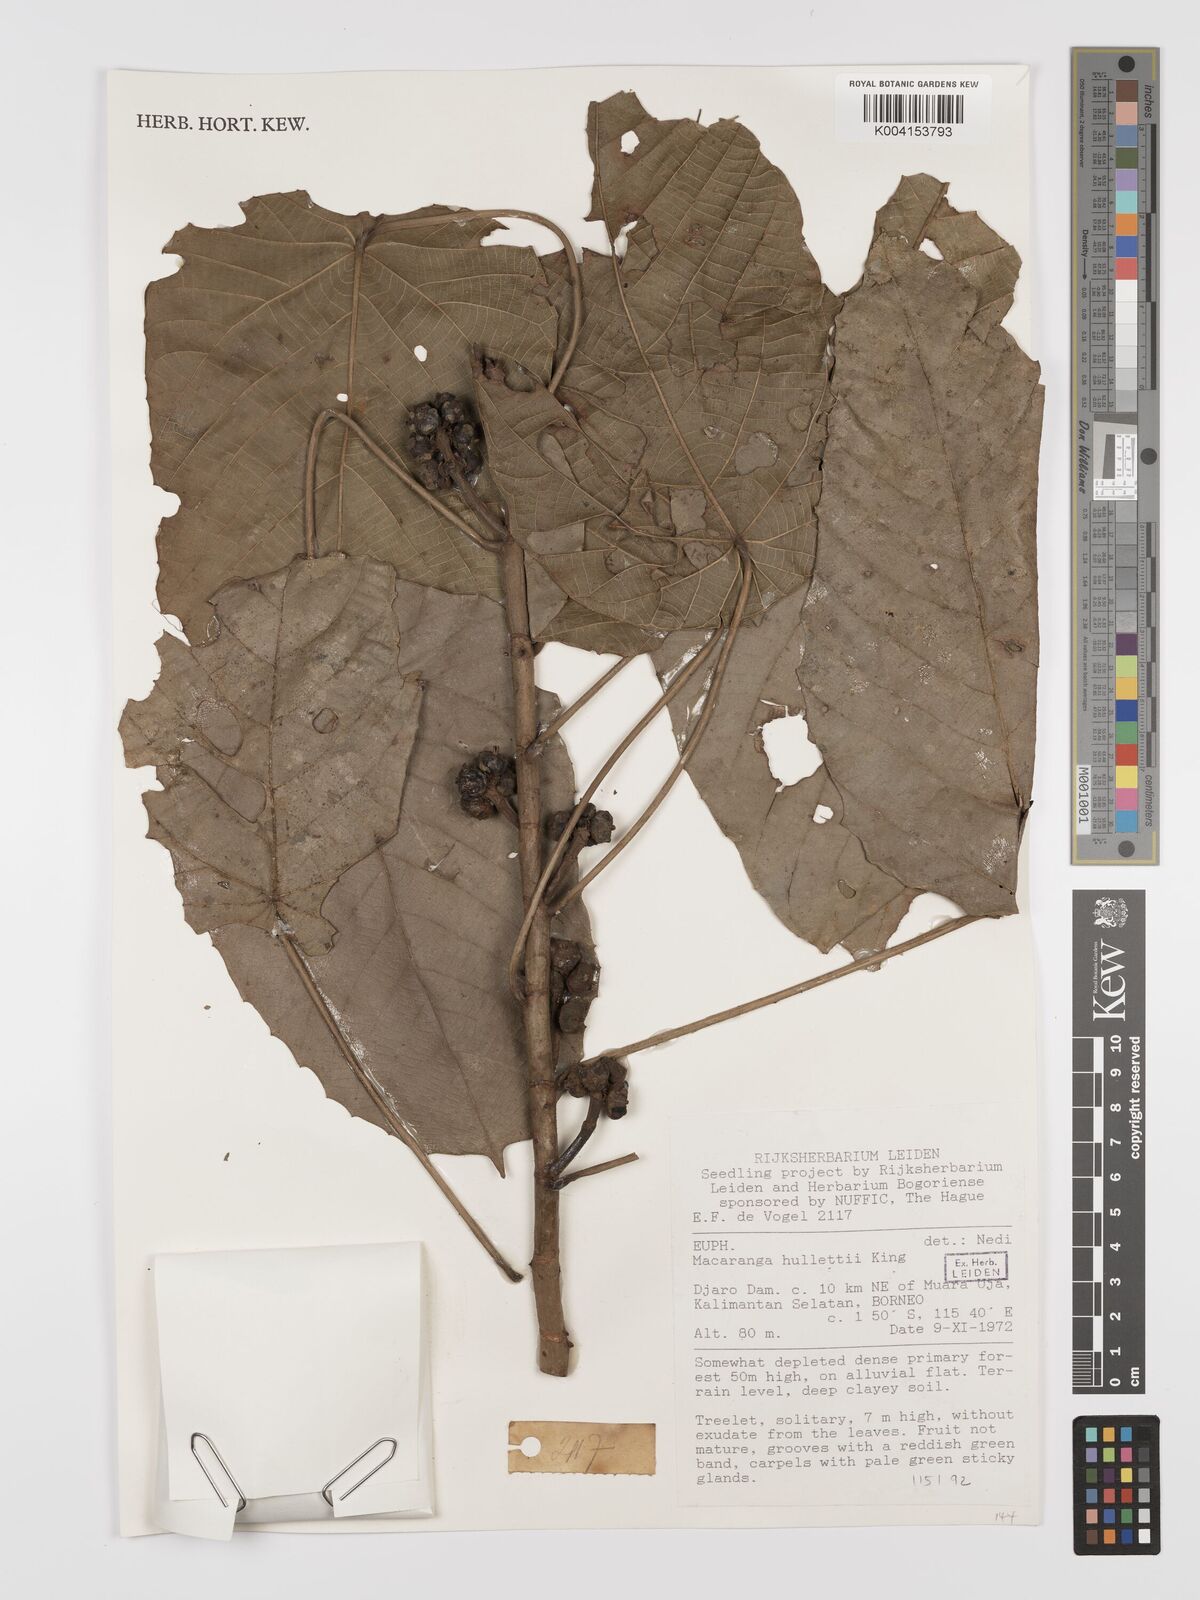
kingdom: Plantae
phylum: Tracheophyta
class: Magnoliopsida
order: Malpighiales
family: Euphorbiaceae
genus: Macaranga
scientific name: Macaranga hullettii
